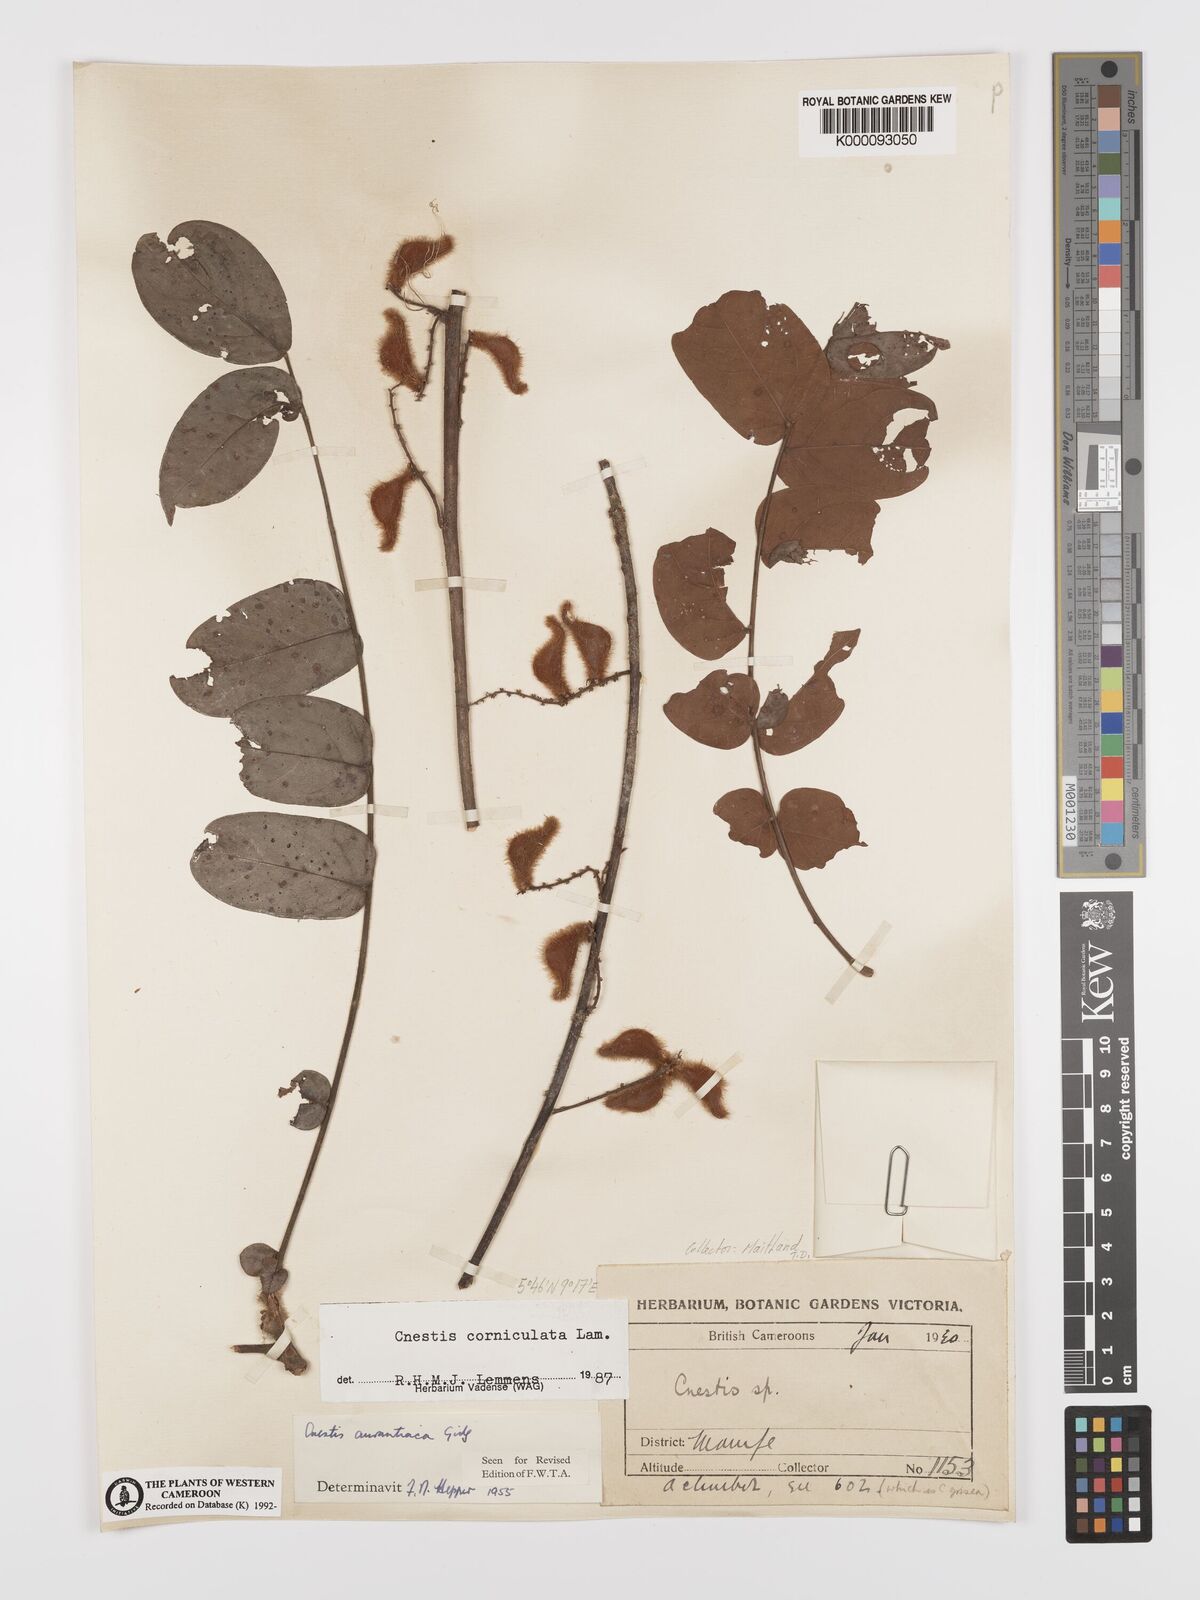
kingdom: Plantae
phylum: Tracheophyta
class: Magnoliopsida
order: Oxalidales
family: Connaraceae
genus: Cnestis
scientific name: Cnestis corniculata
